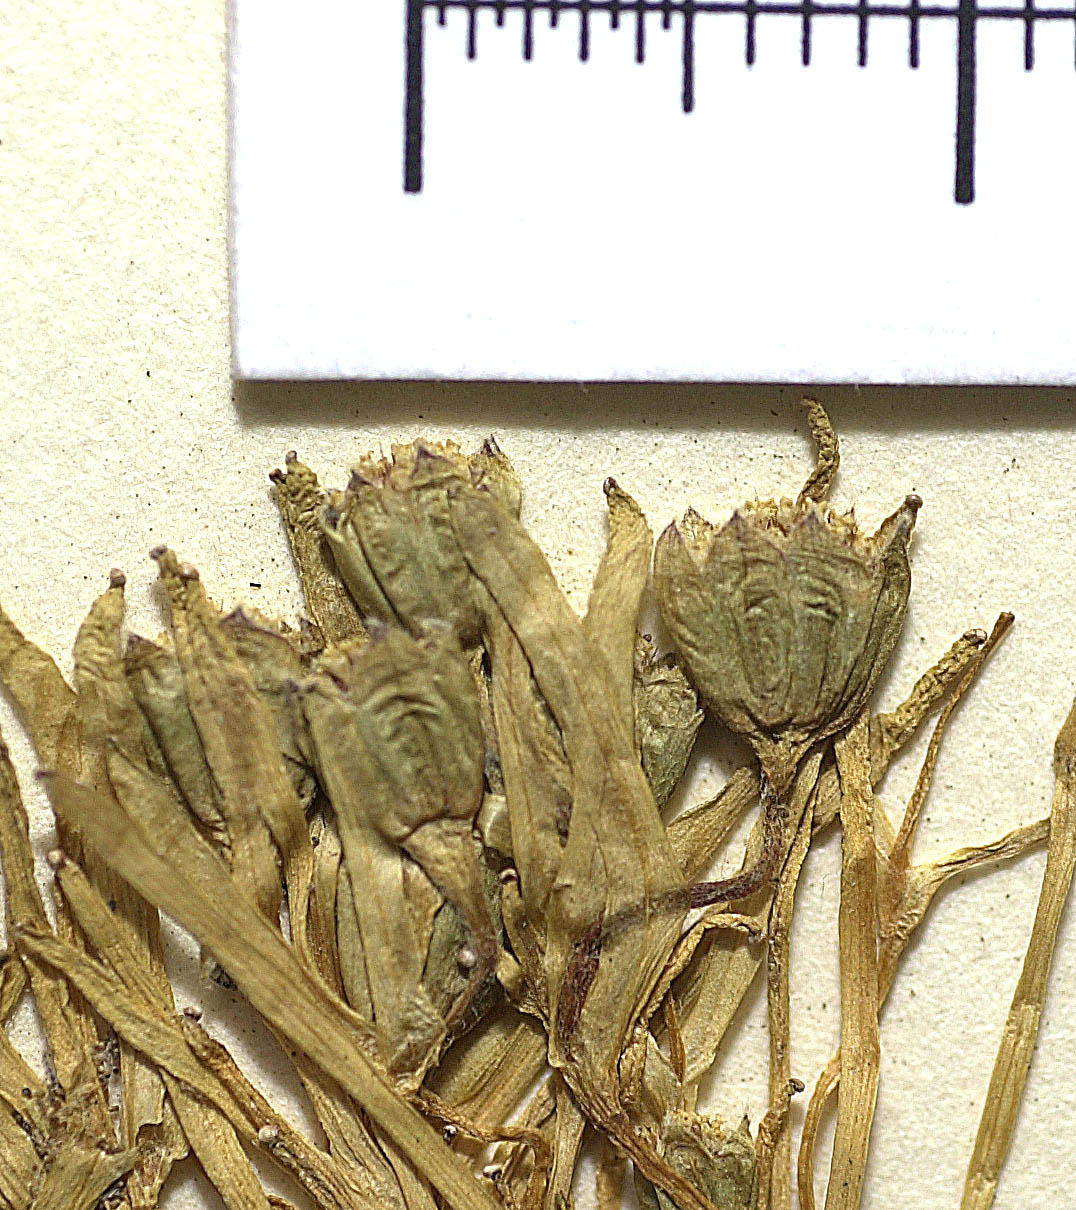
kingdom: Plantae
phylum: Tracheophyta
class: Magnoliopsida
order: Asterales
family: Asteraceae
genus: Lasthenia
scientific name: Lasthenia minima
